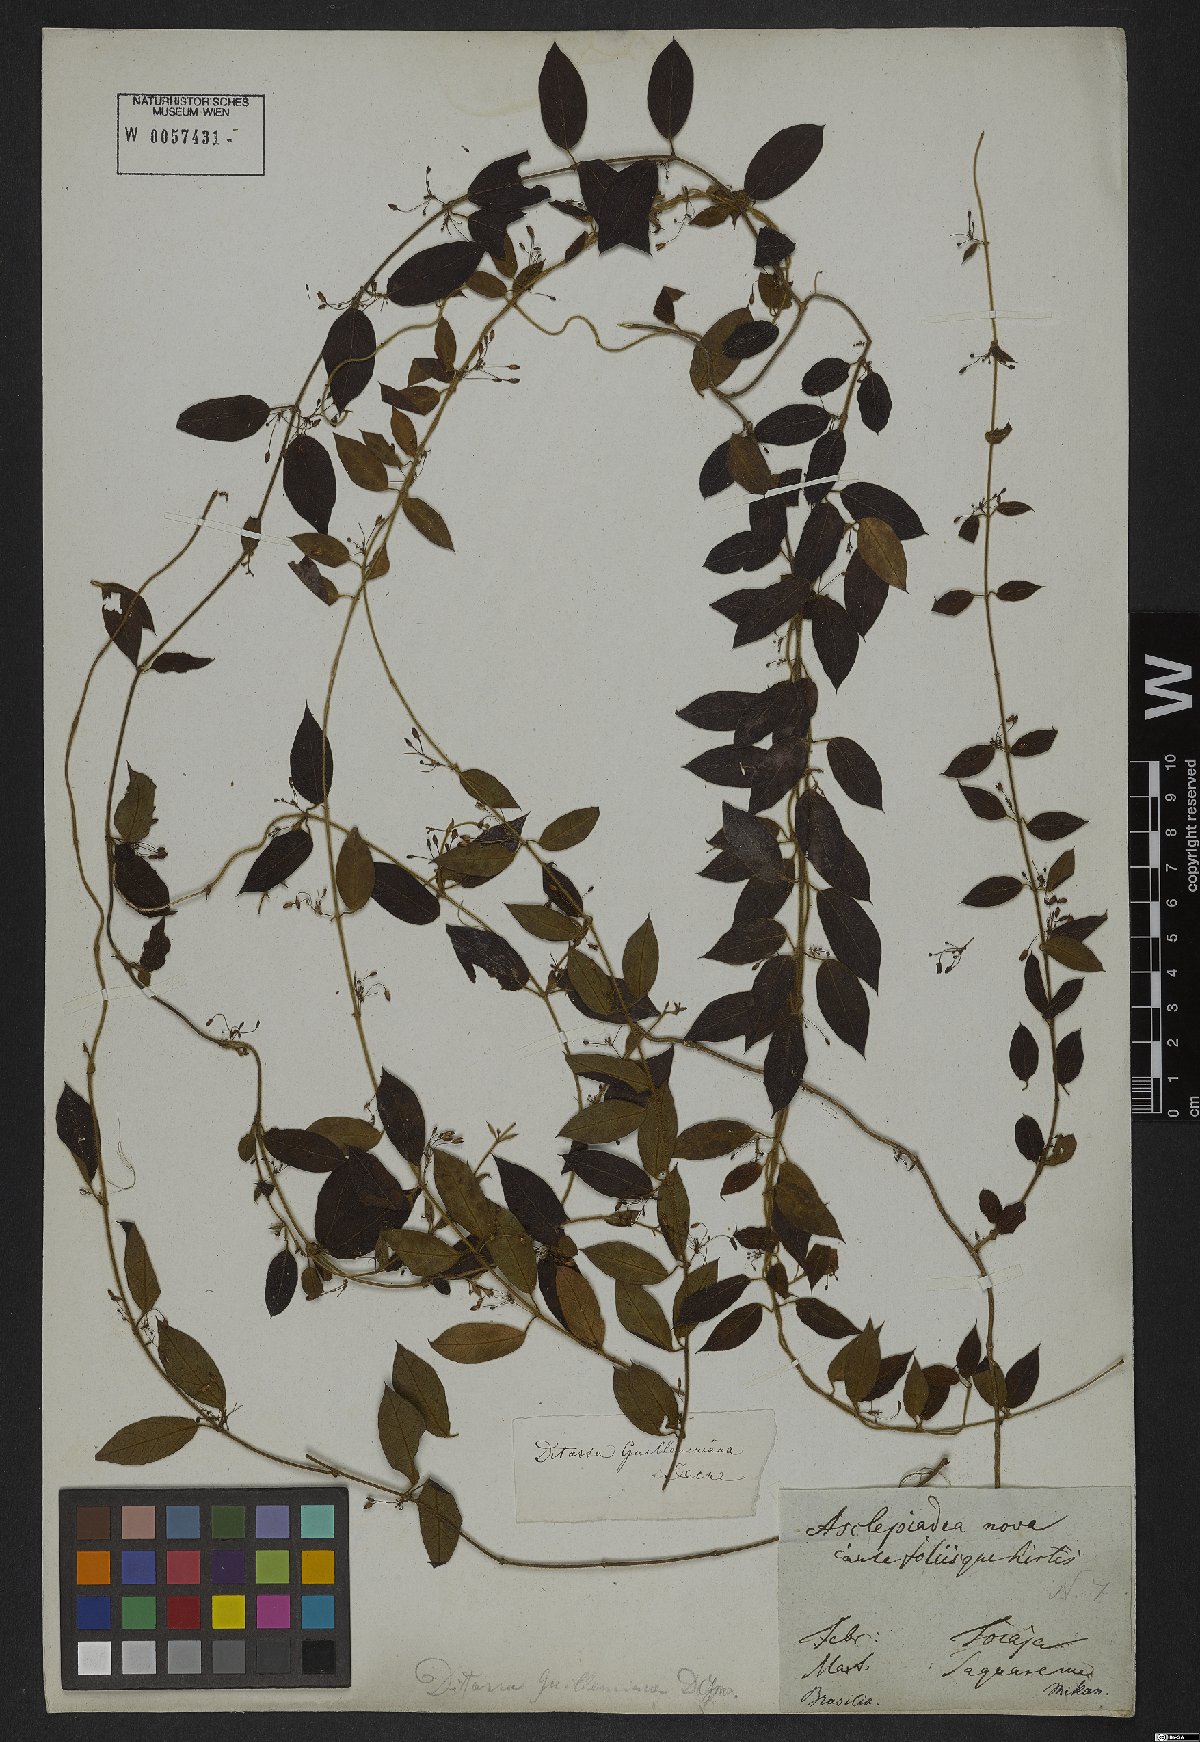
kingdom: Plantae
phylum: Tracheophyta
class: Magnoliopsida
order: Gentianales
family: Apocynaceae
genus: Ditassa
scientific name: Ditassa hispida
